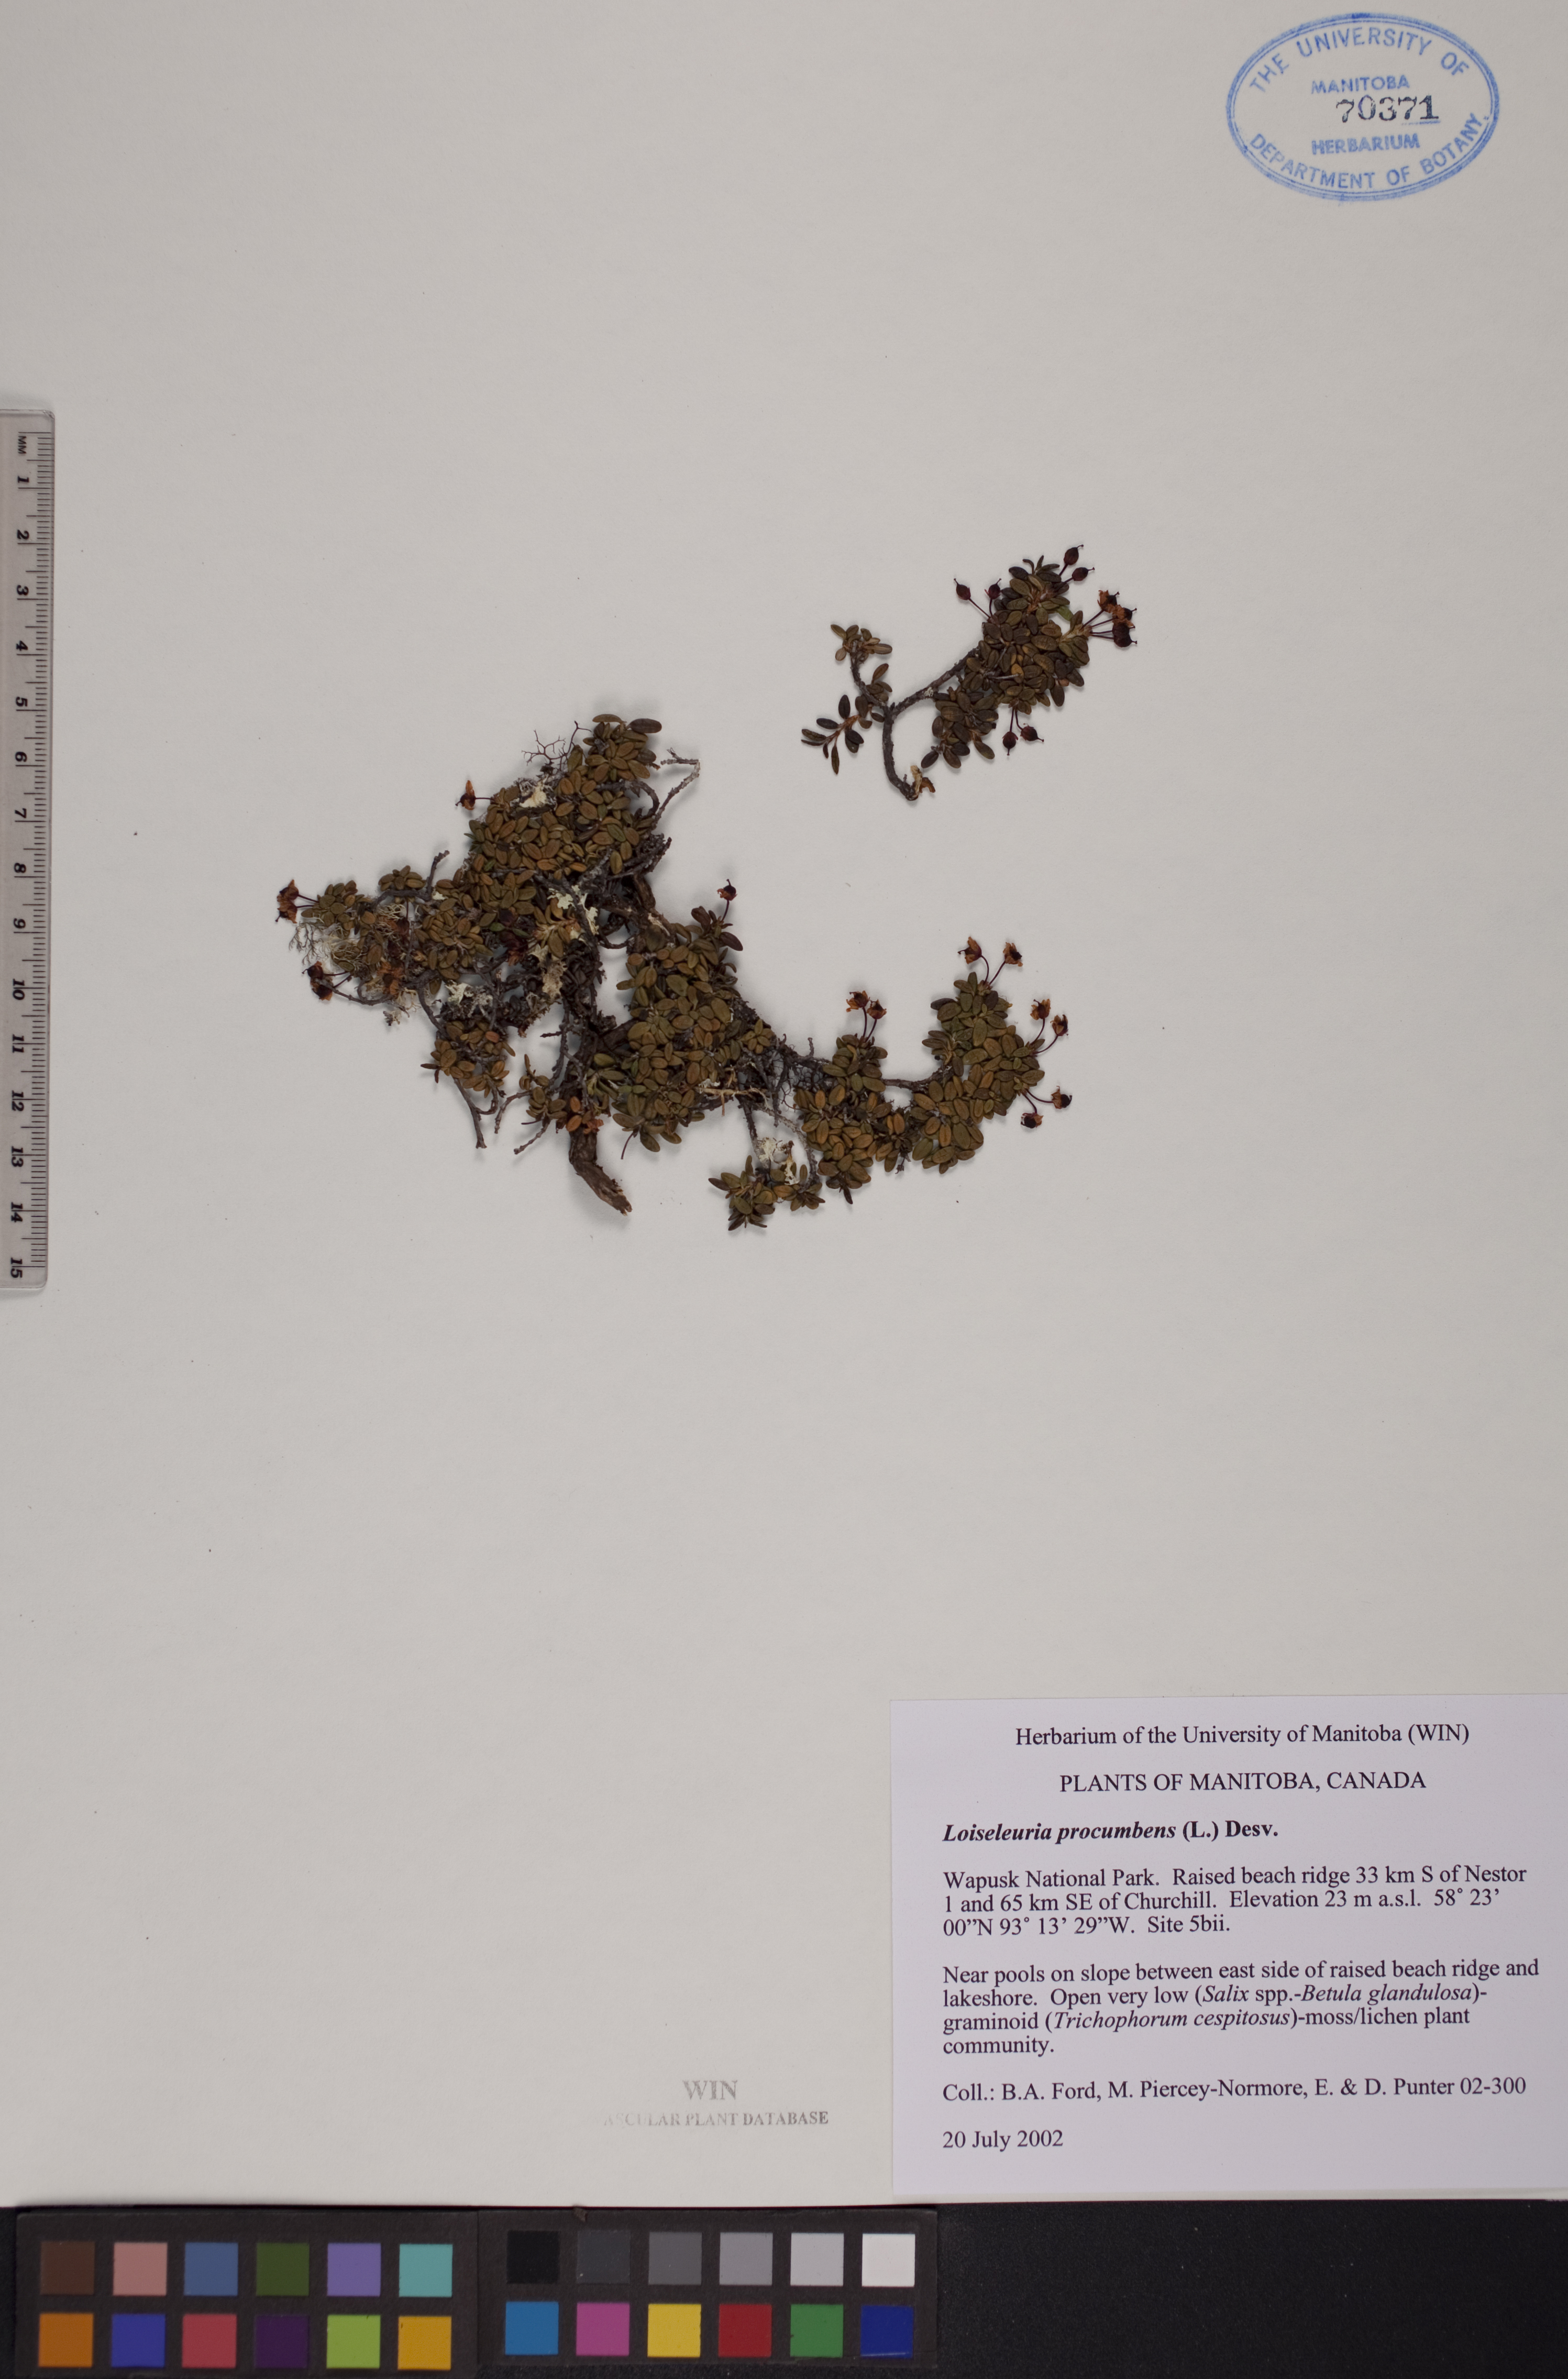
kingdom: Plantae
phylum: Tracheophyta
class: Magnoliopsida
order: Ericales
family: Ericaceae
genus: Kalmia
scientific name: Kalmia procumbens
